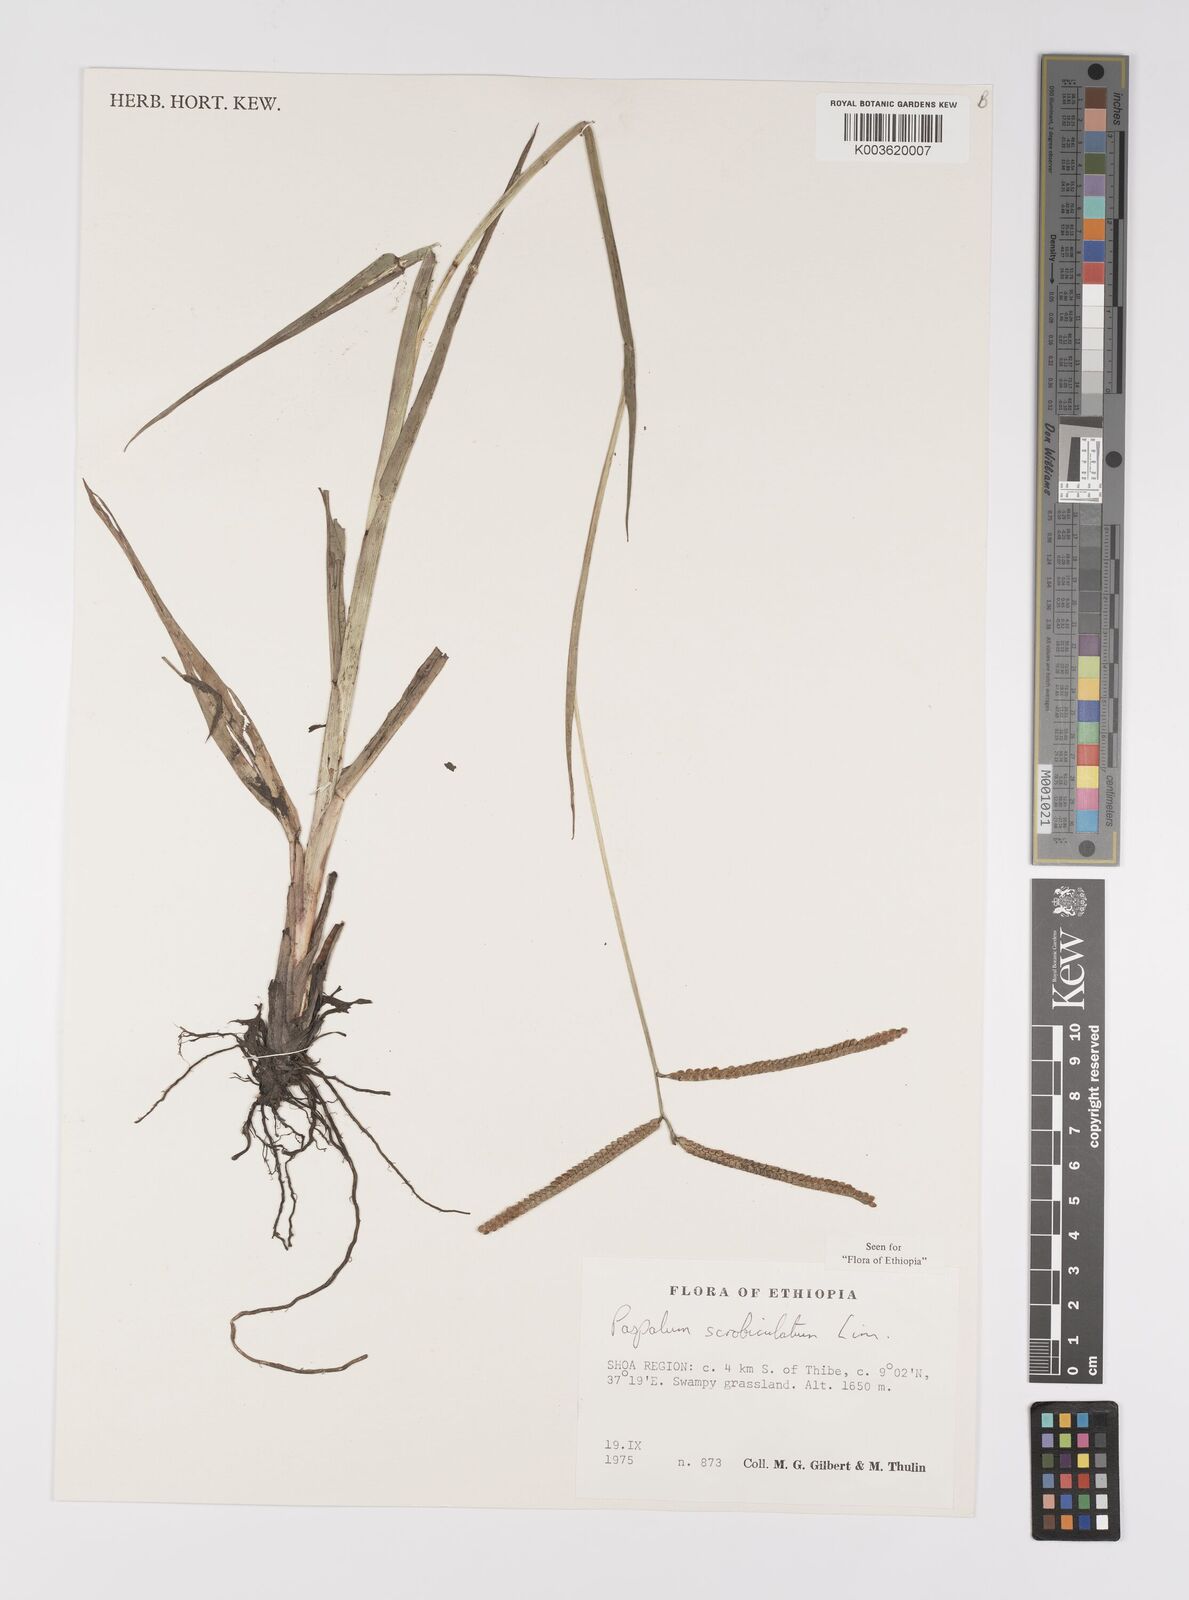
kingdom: Plantae
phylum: Tracheophyta
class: Liliopsida
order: Poales
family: Poaceae
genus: Paspalum
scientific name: Paspalum scrobiculatum
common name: Kodo millet
